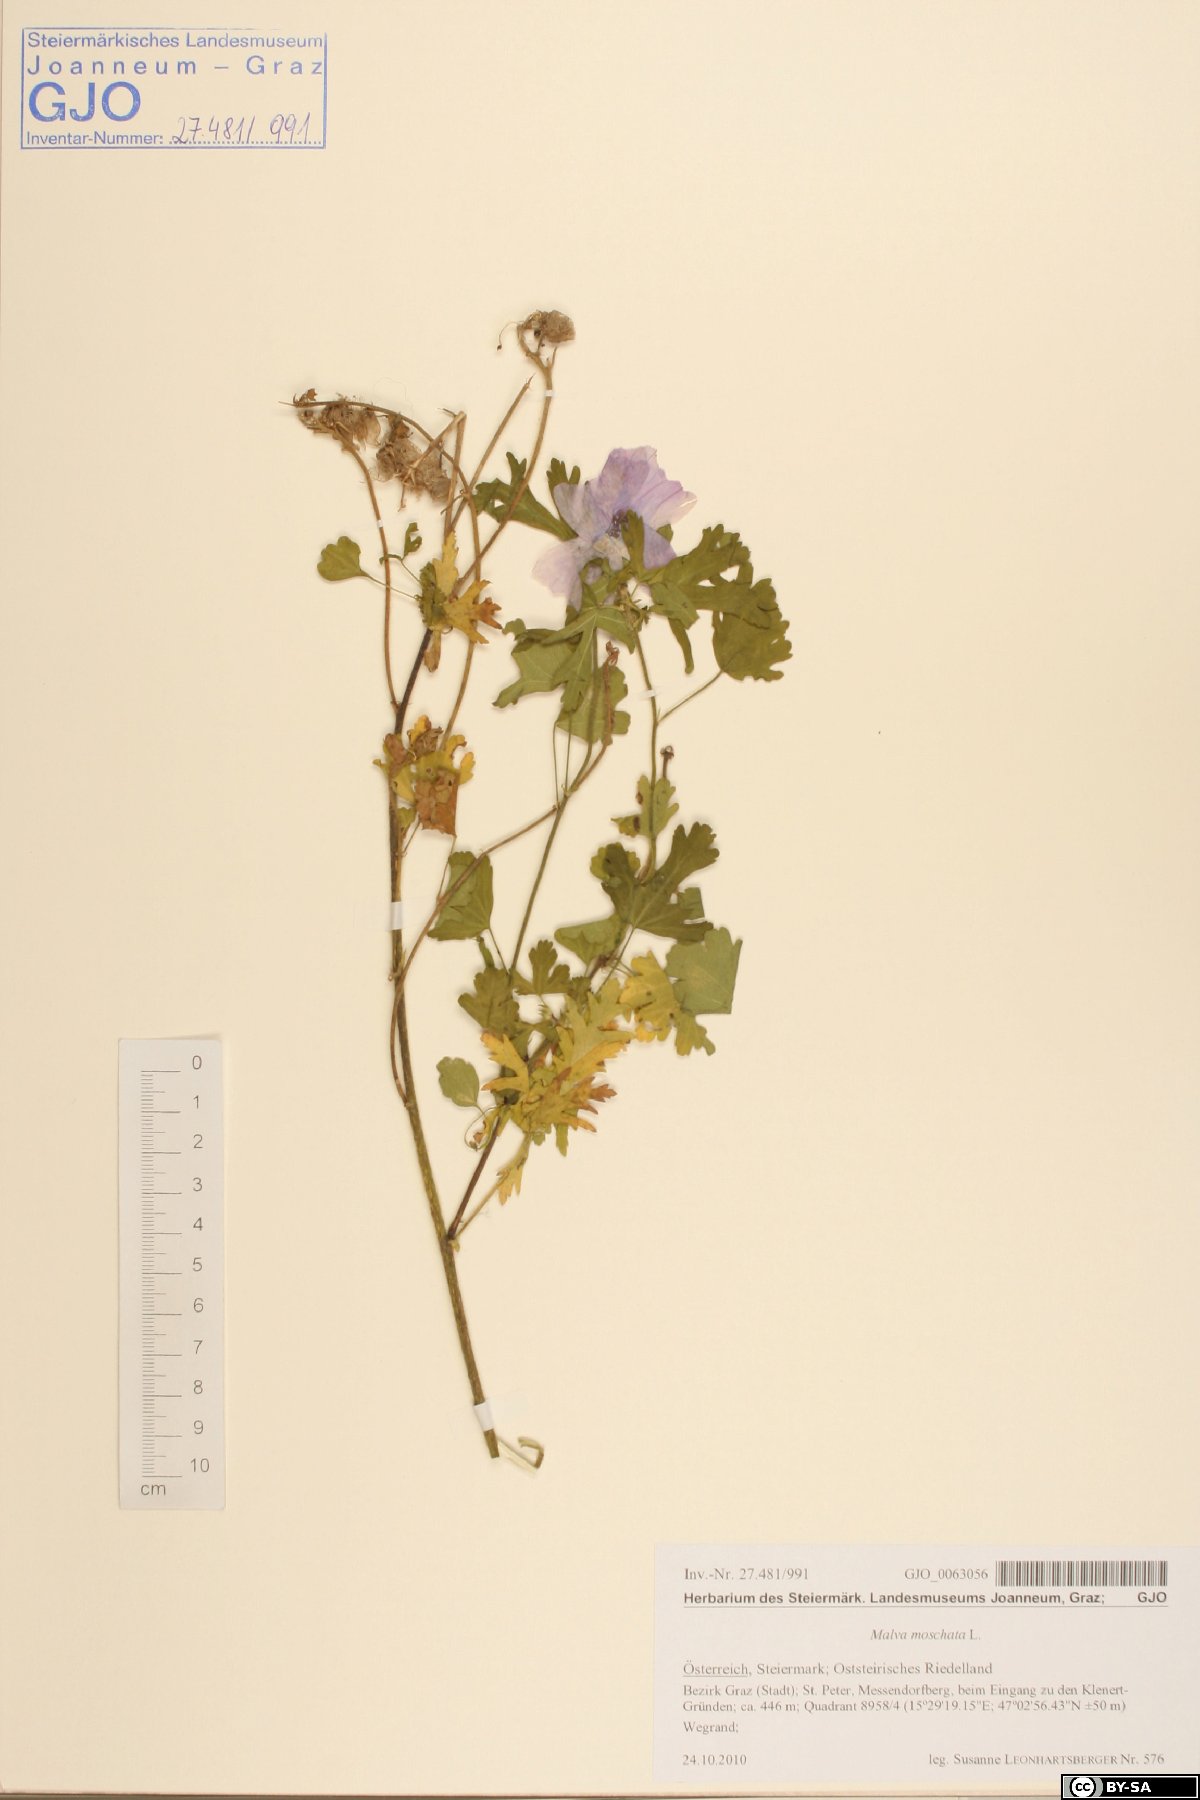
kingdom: Plantae
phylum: Tracheophyta
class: Magnoliopsida
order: Malvales
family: Malvaceae
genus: Malva
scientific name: Malva moschata
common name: Musk mallow
